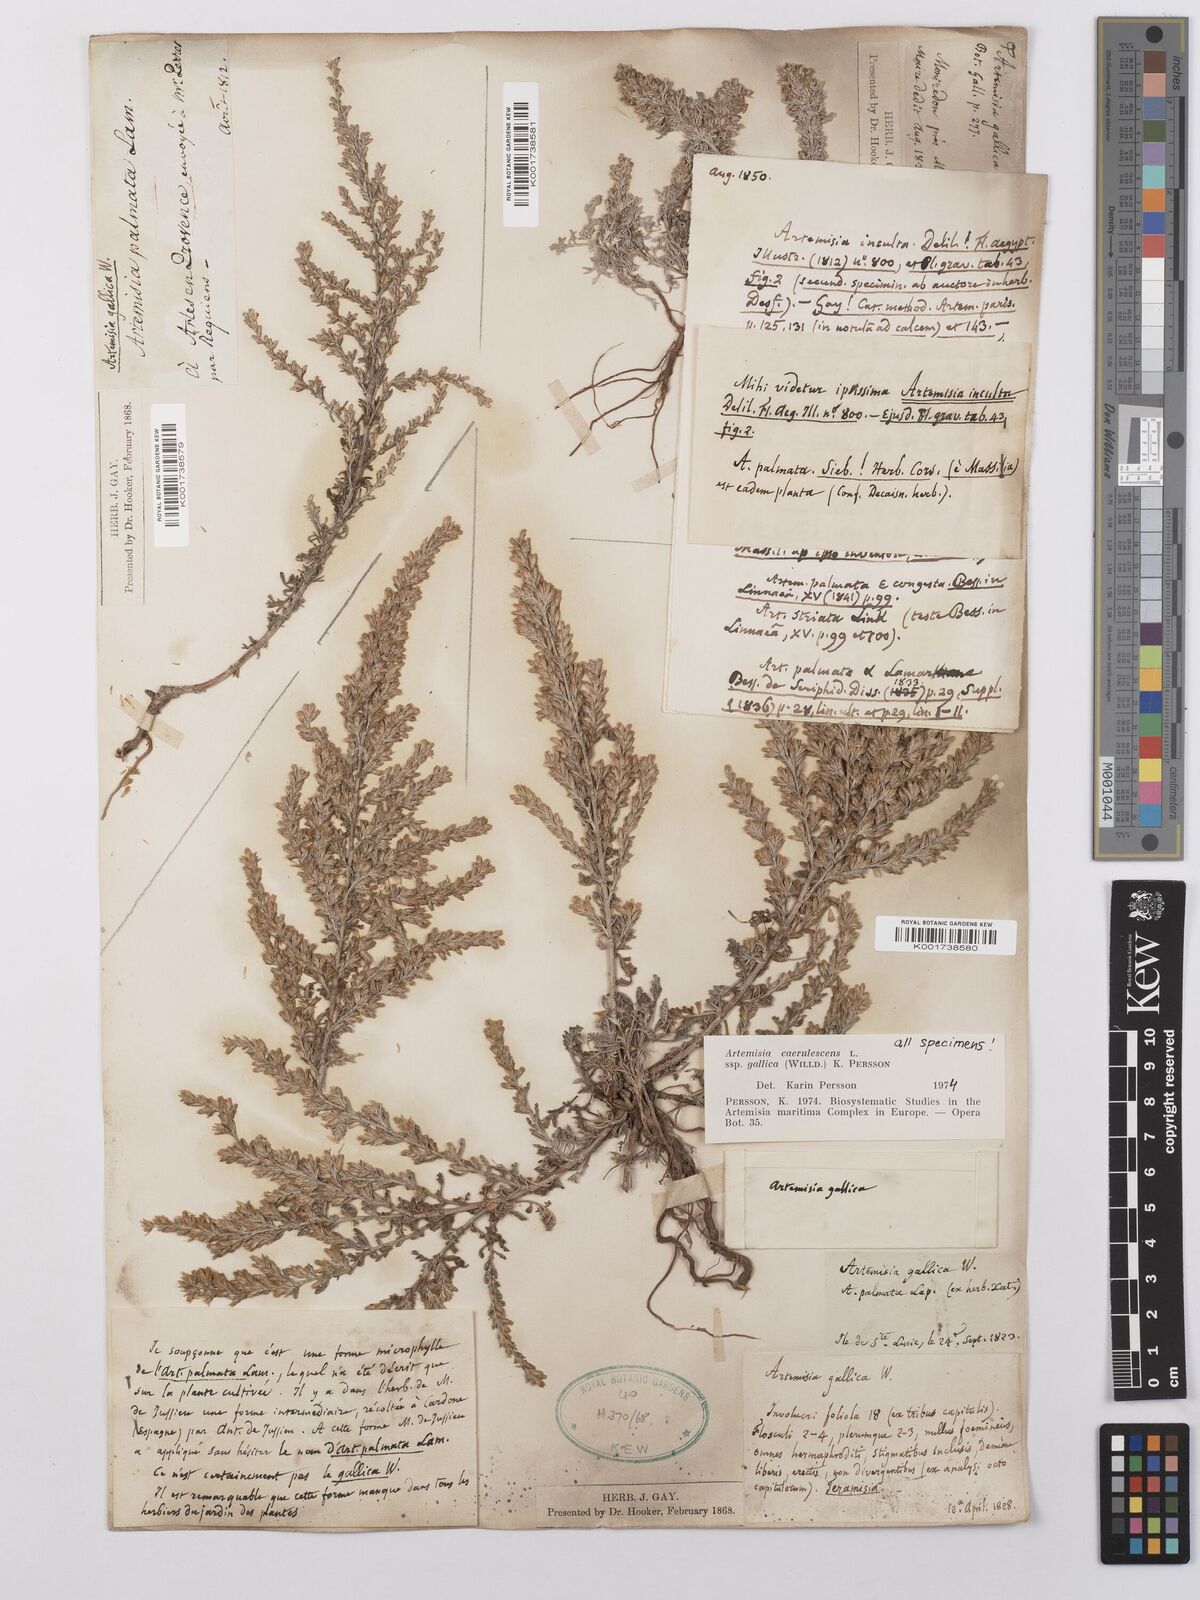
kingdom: Plantae
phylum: Tracheophyta
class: Magnoliopsida
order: Asterales
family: Asteraceae
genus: Artemisia
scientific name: Artemisia caerulescens
